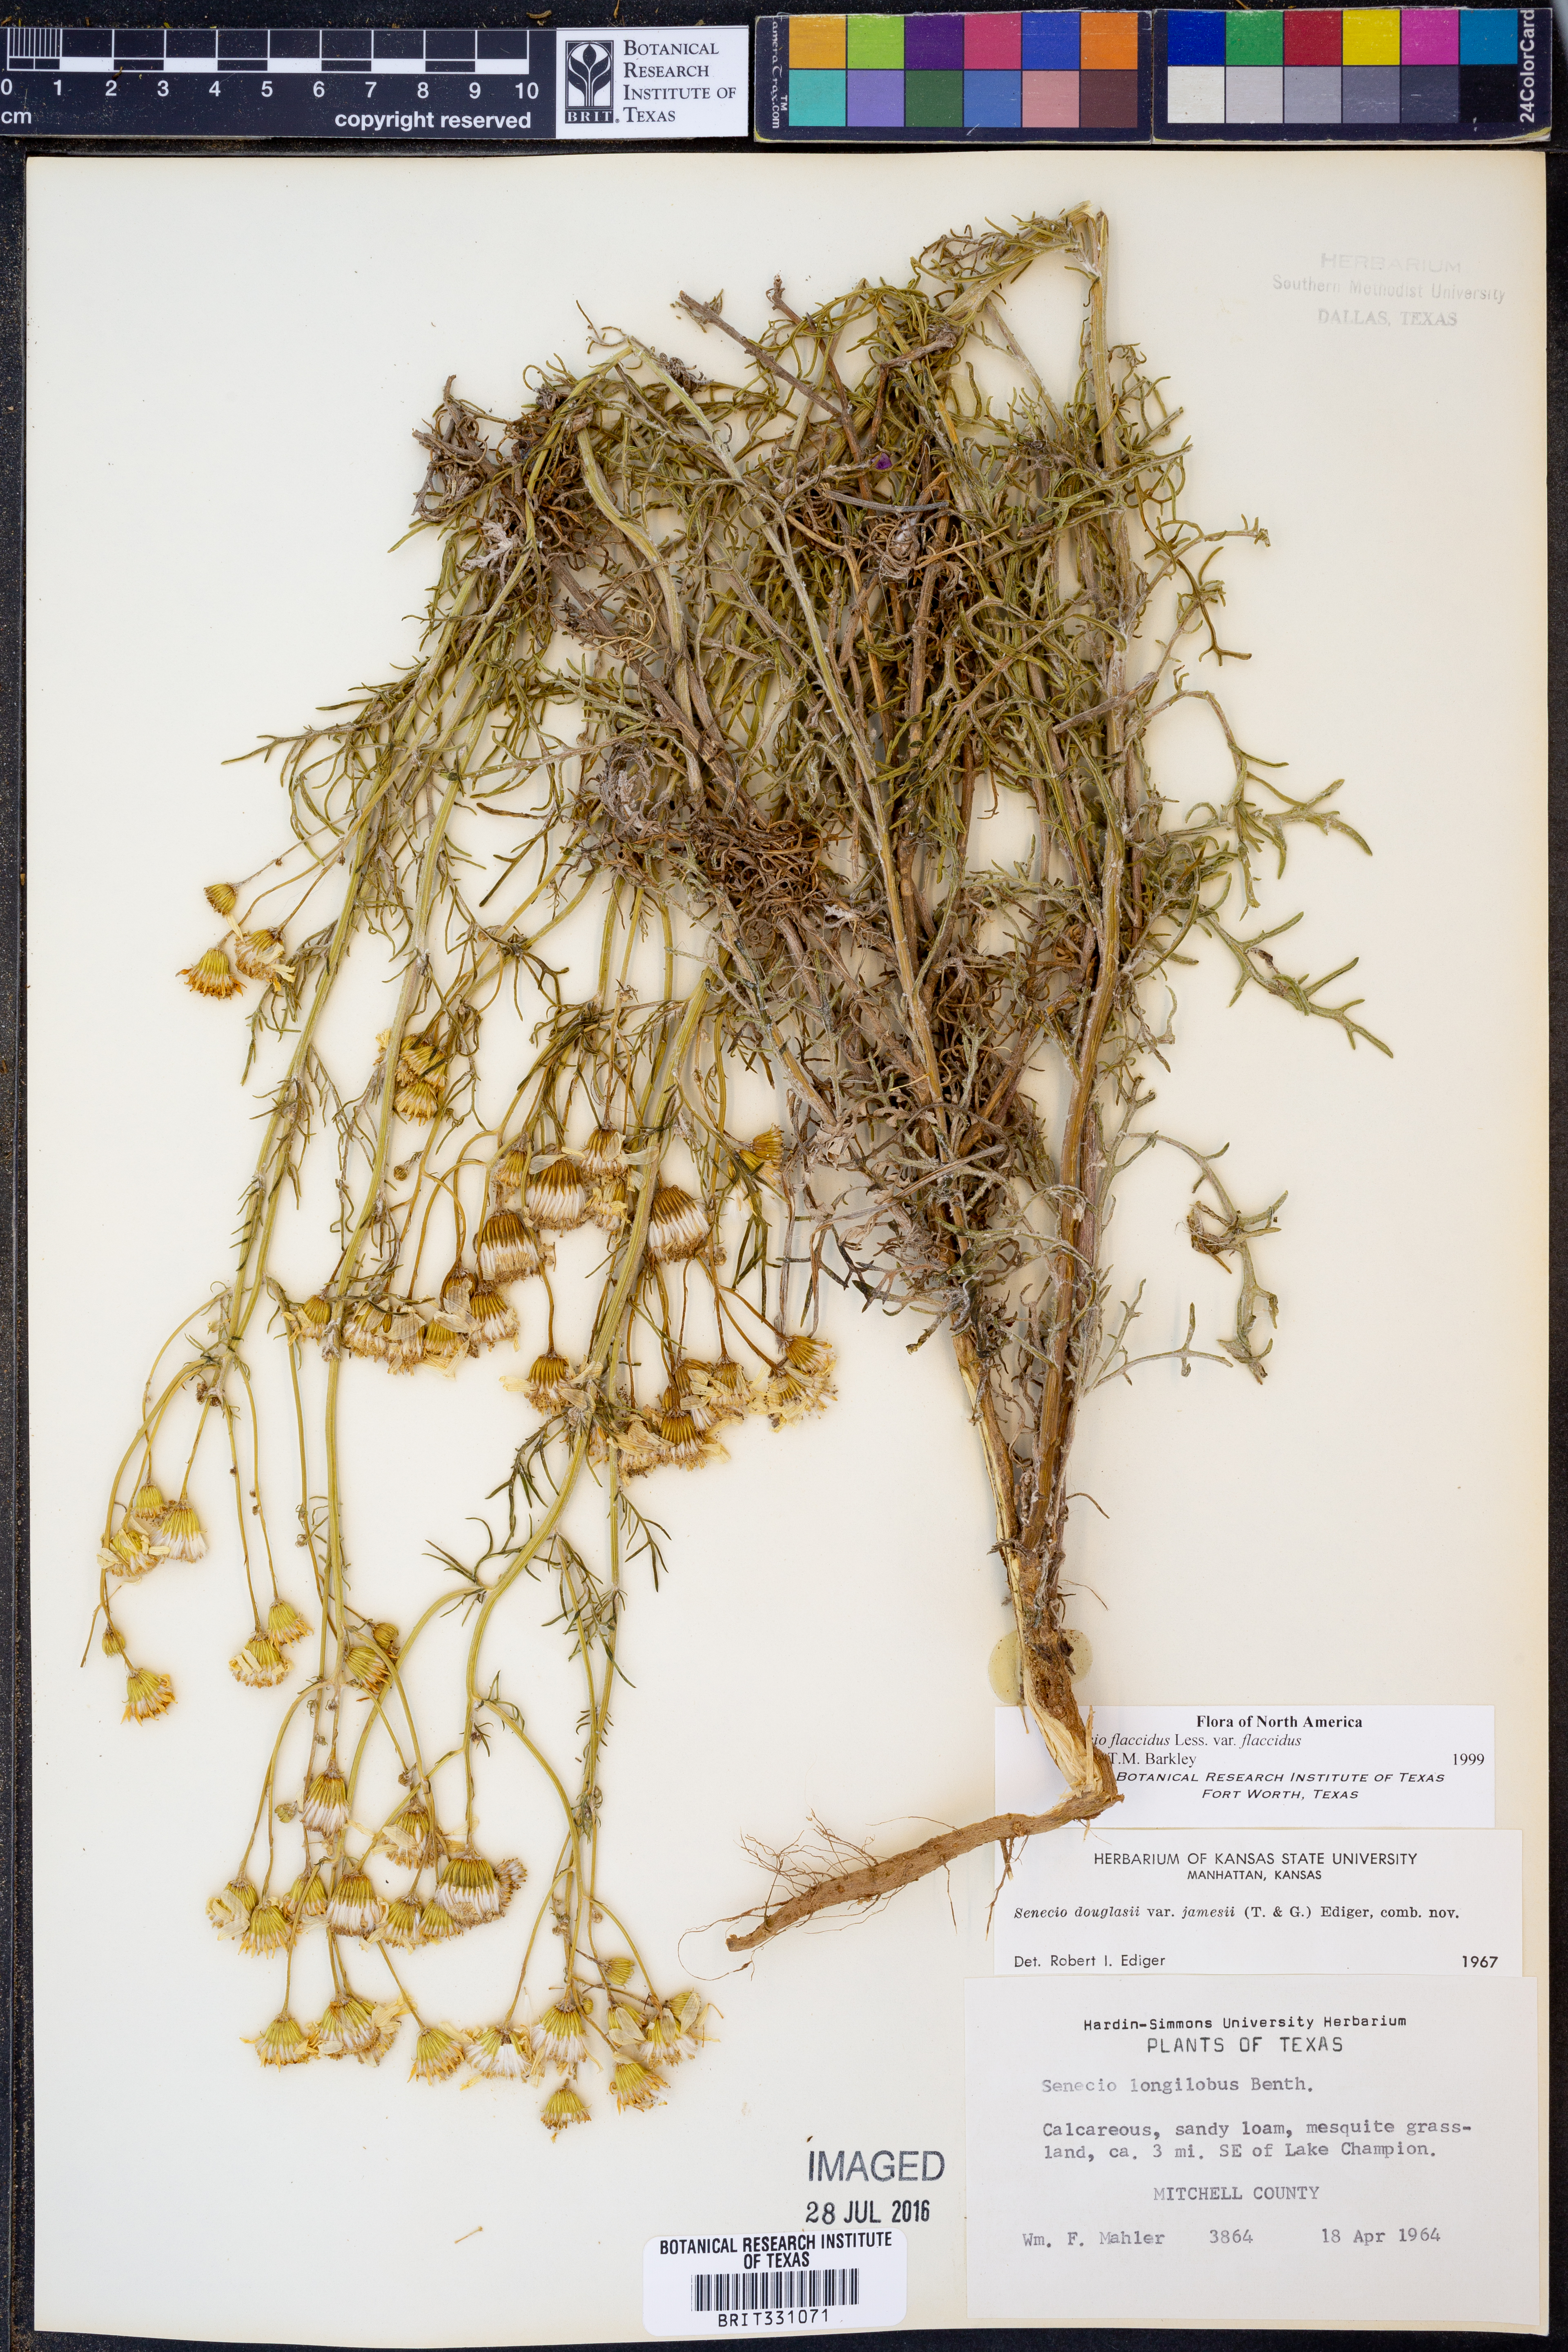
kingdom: Plantae
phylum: Tracheophyta
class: Magnoliopsida
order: Asterales
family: Asteraceae
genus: Senecio
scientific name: Senecio flaccidus
